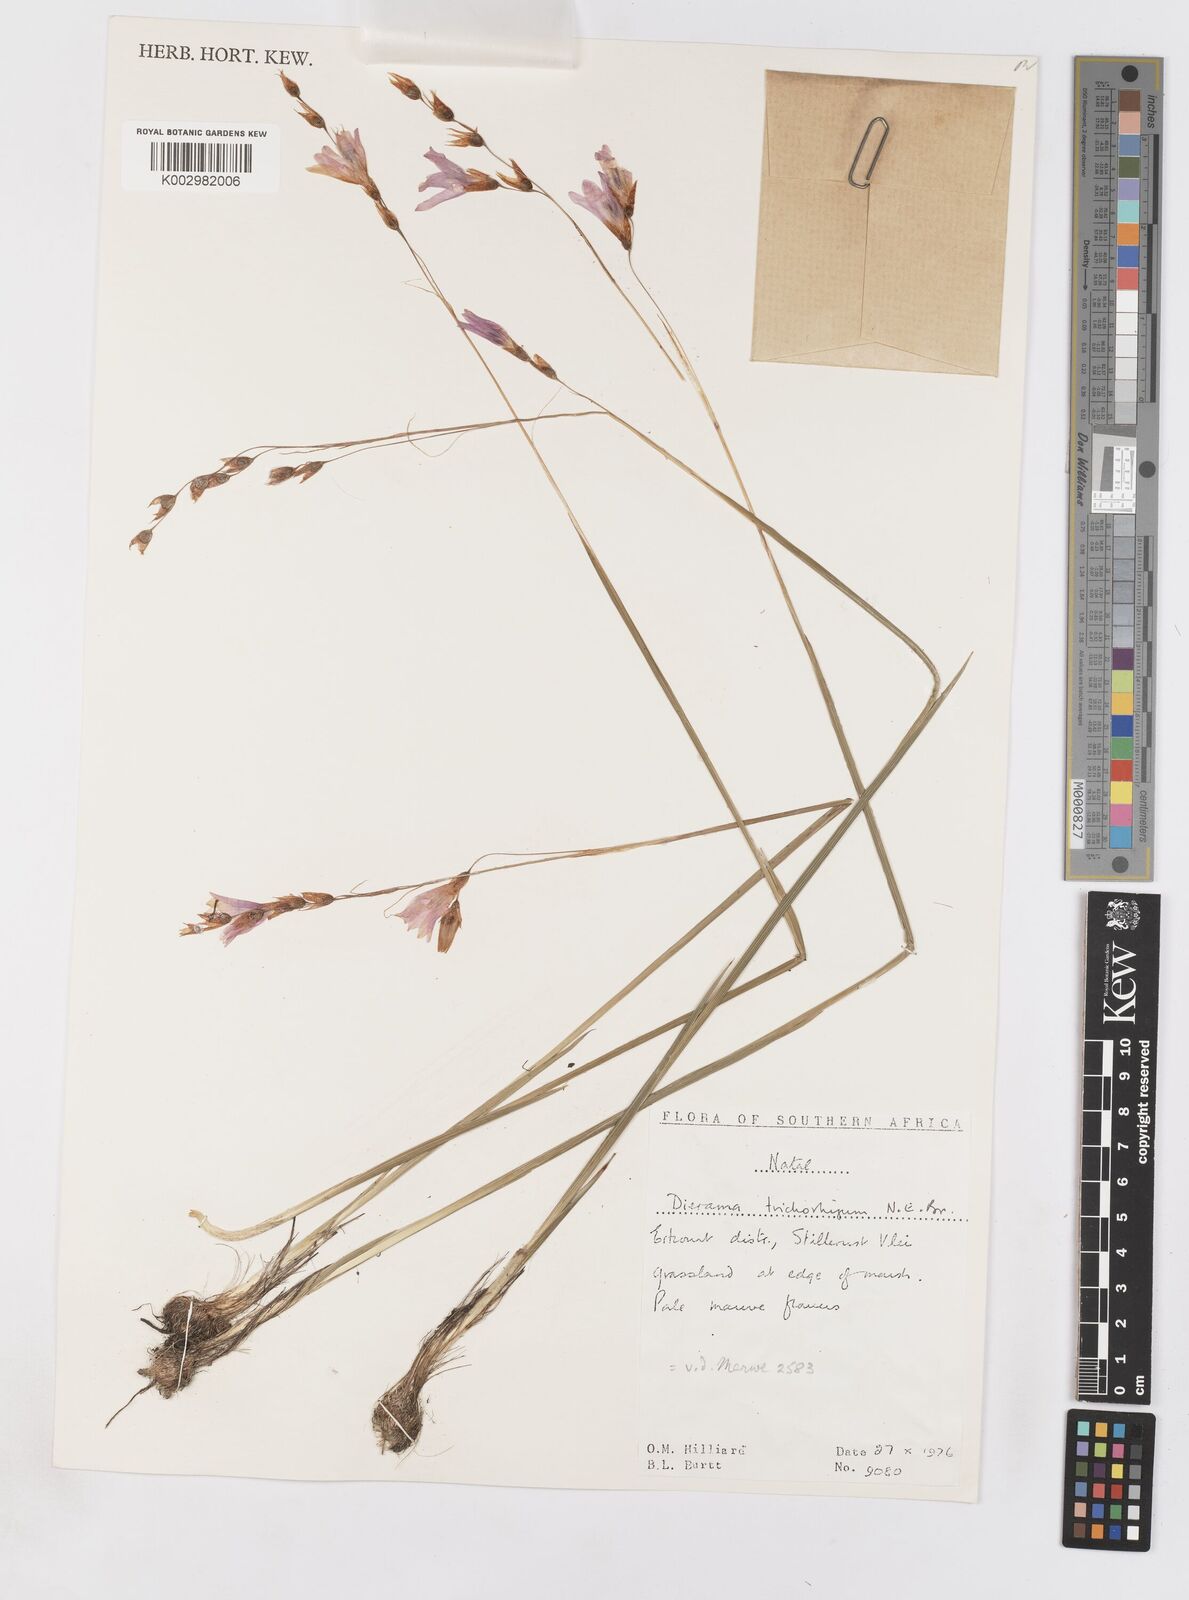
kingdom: Plantae
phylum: Tracheophyta
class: Liliopsida
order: Asparagales
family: Iridaceae
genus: Dierama
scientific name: Dierama trichorhizum
